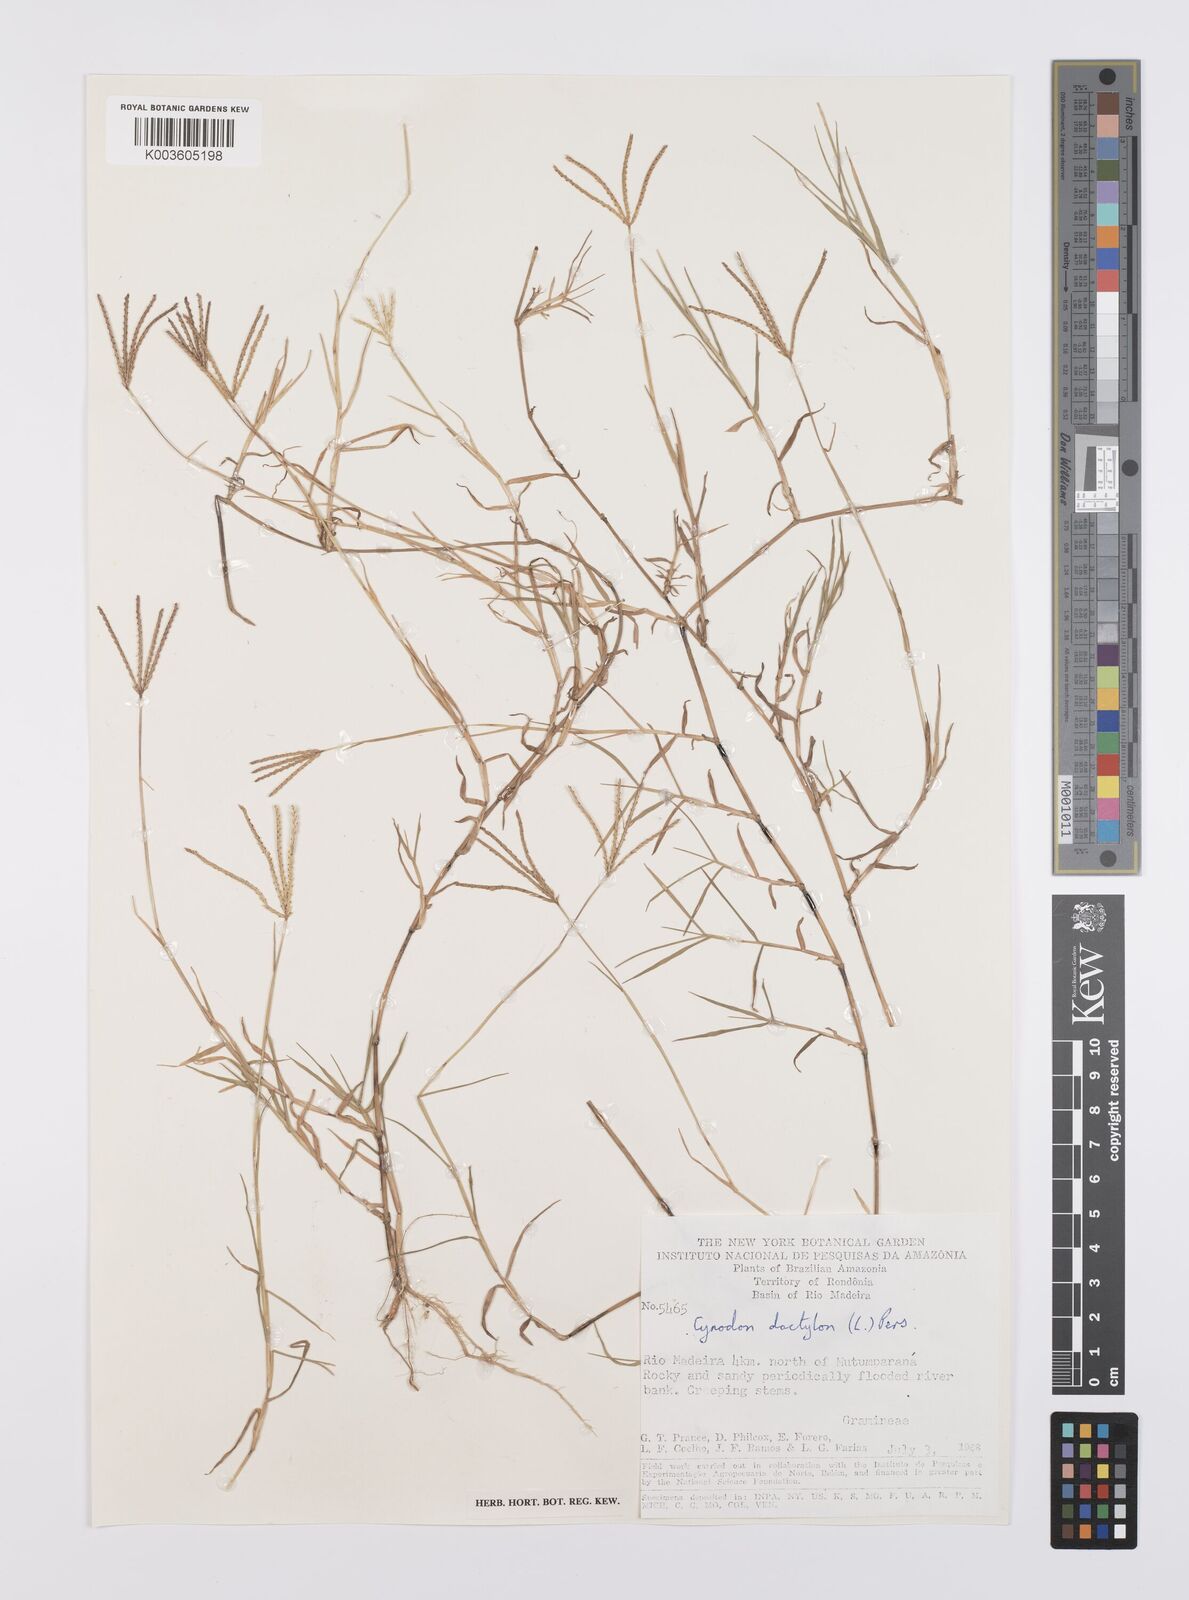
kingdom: Plantae
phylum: Tracheophyta
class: Liliopsida
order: Poales
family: Poaceae
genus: Cynodon
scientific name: Cynodon dactylon
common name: Bermuda grass
